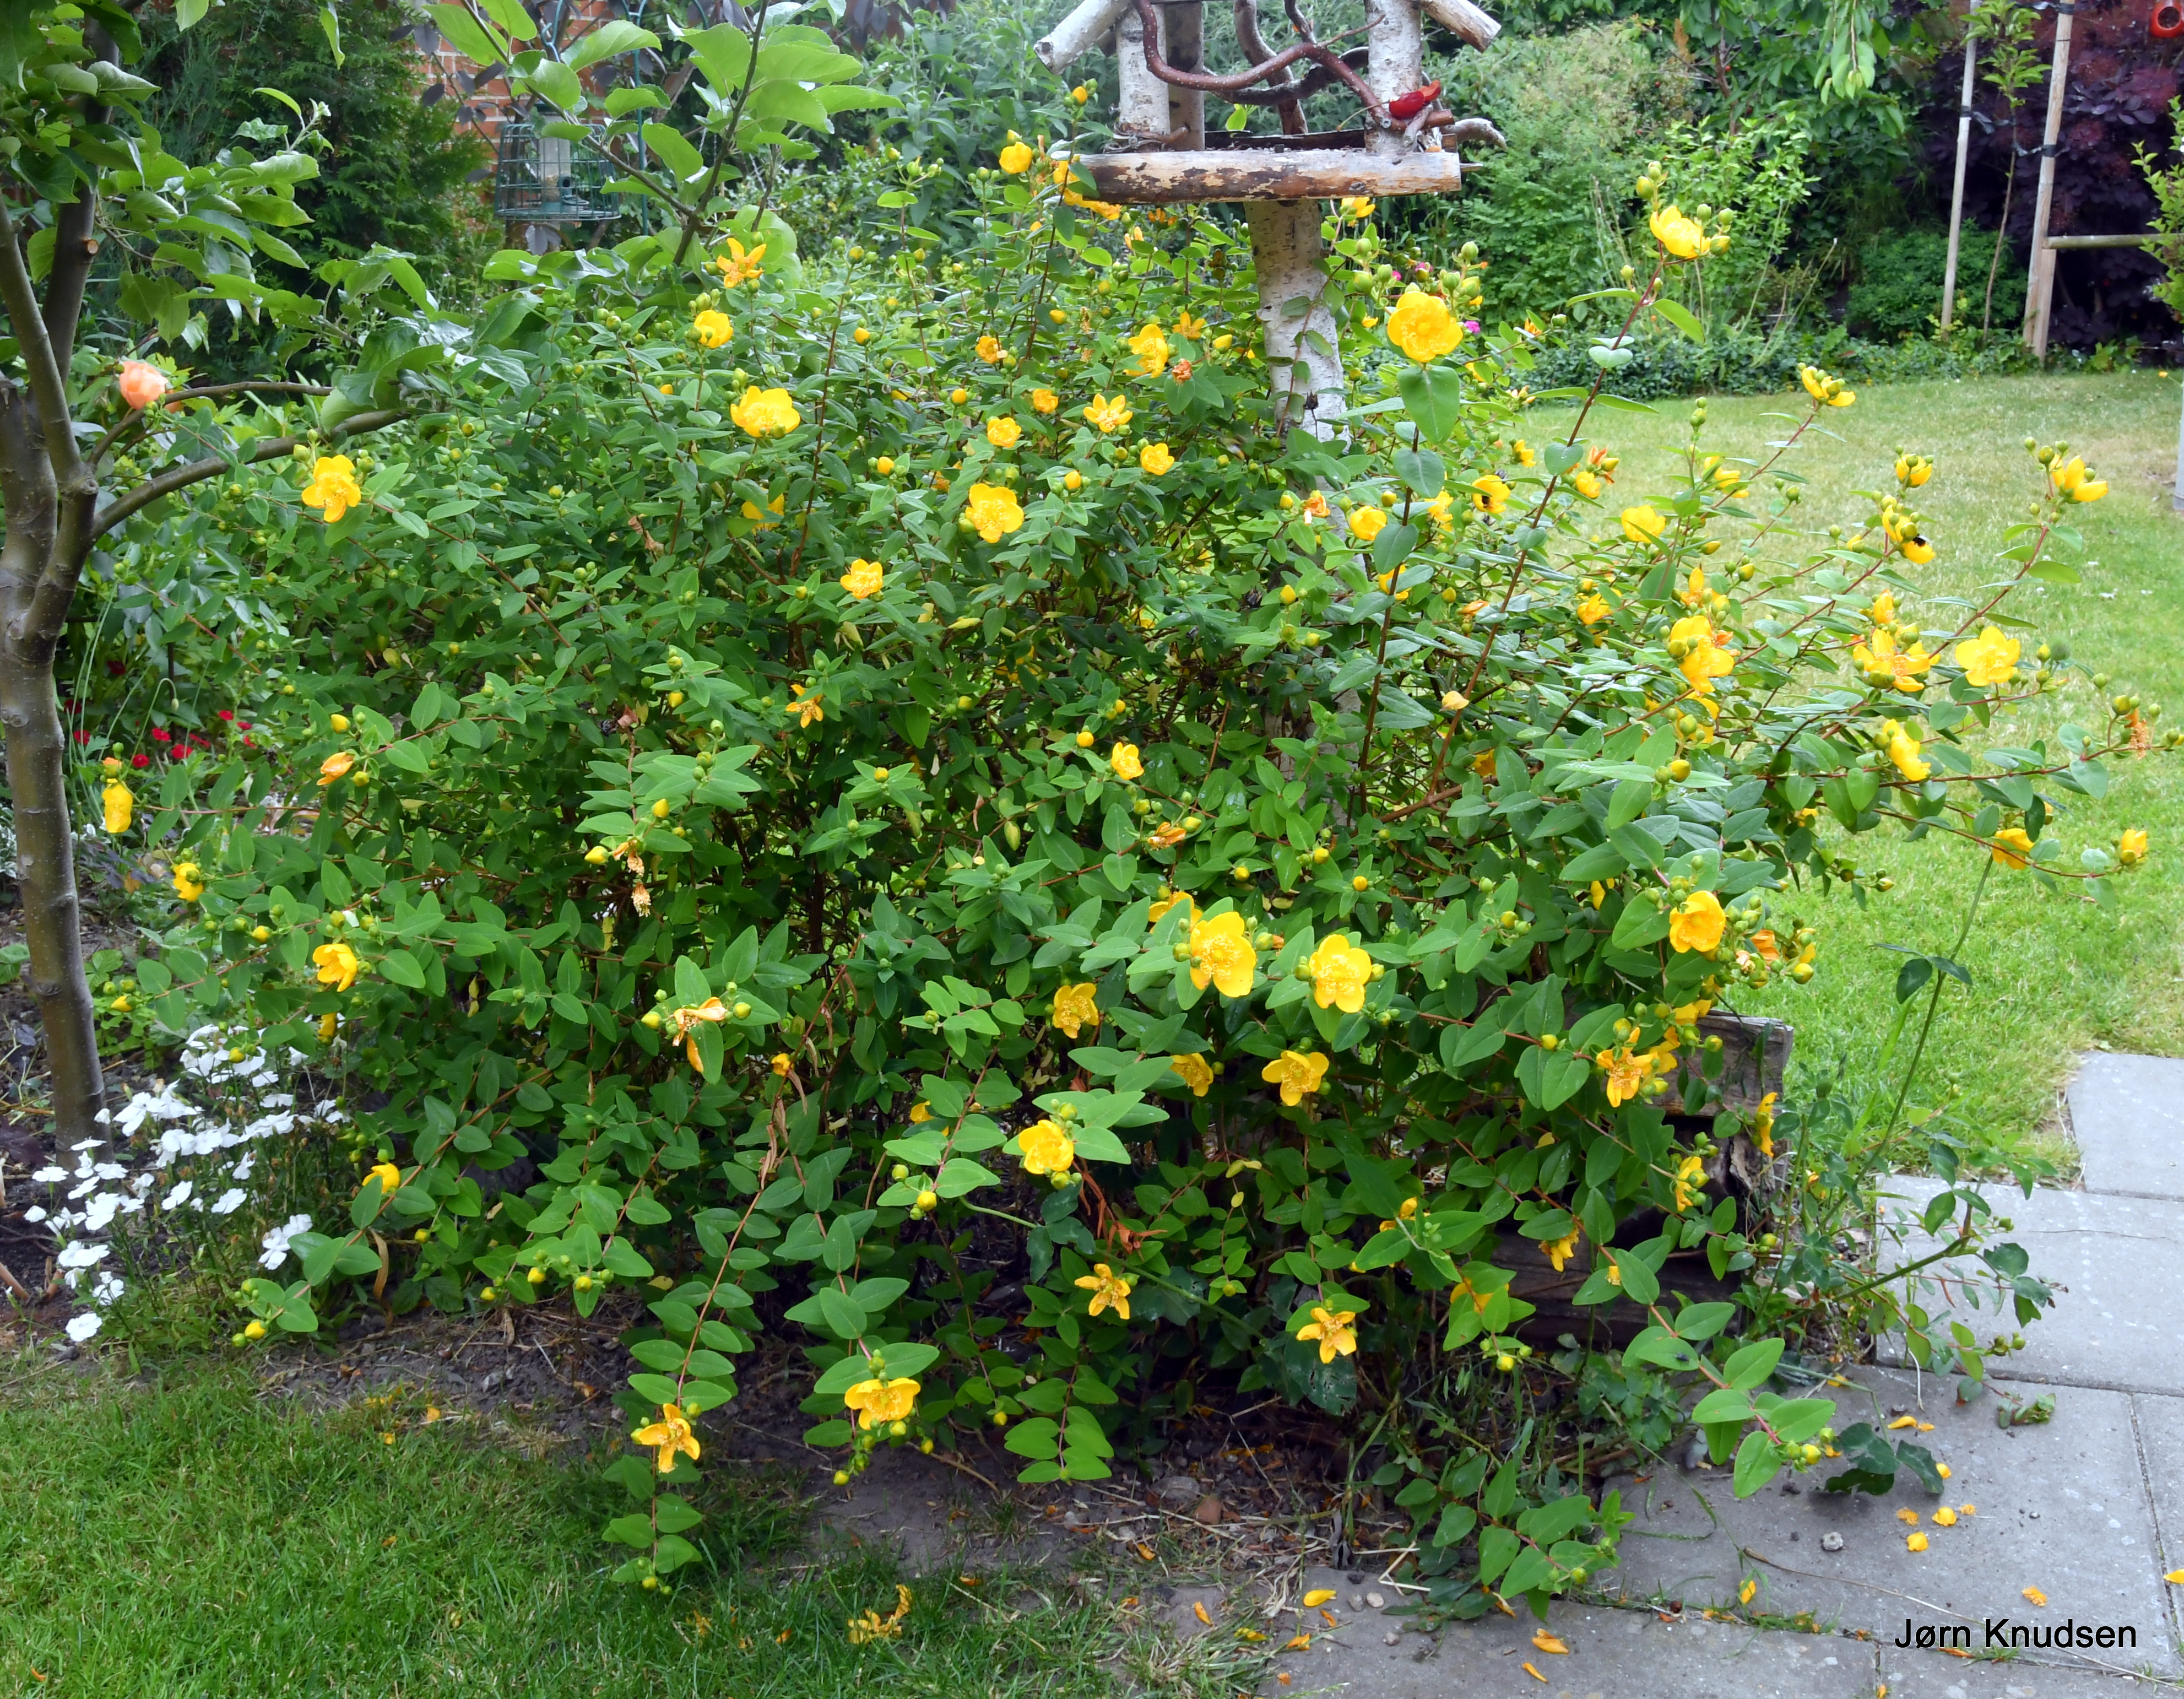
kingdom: Plantae
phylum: Tracheophyta
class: Magnoliopsida
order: Malpighiales
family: Hypericaceae
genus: Hypericum
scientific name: Hypericum
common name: Perikonslægten
